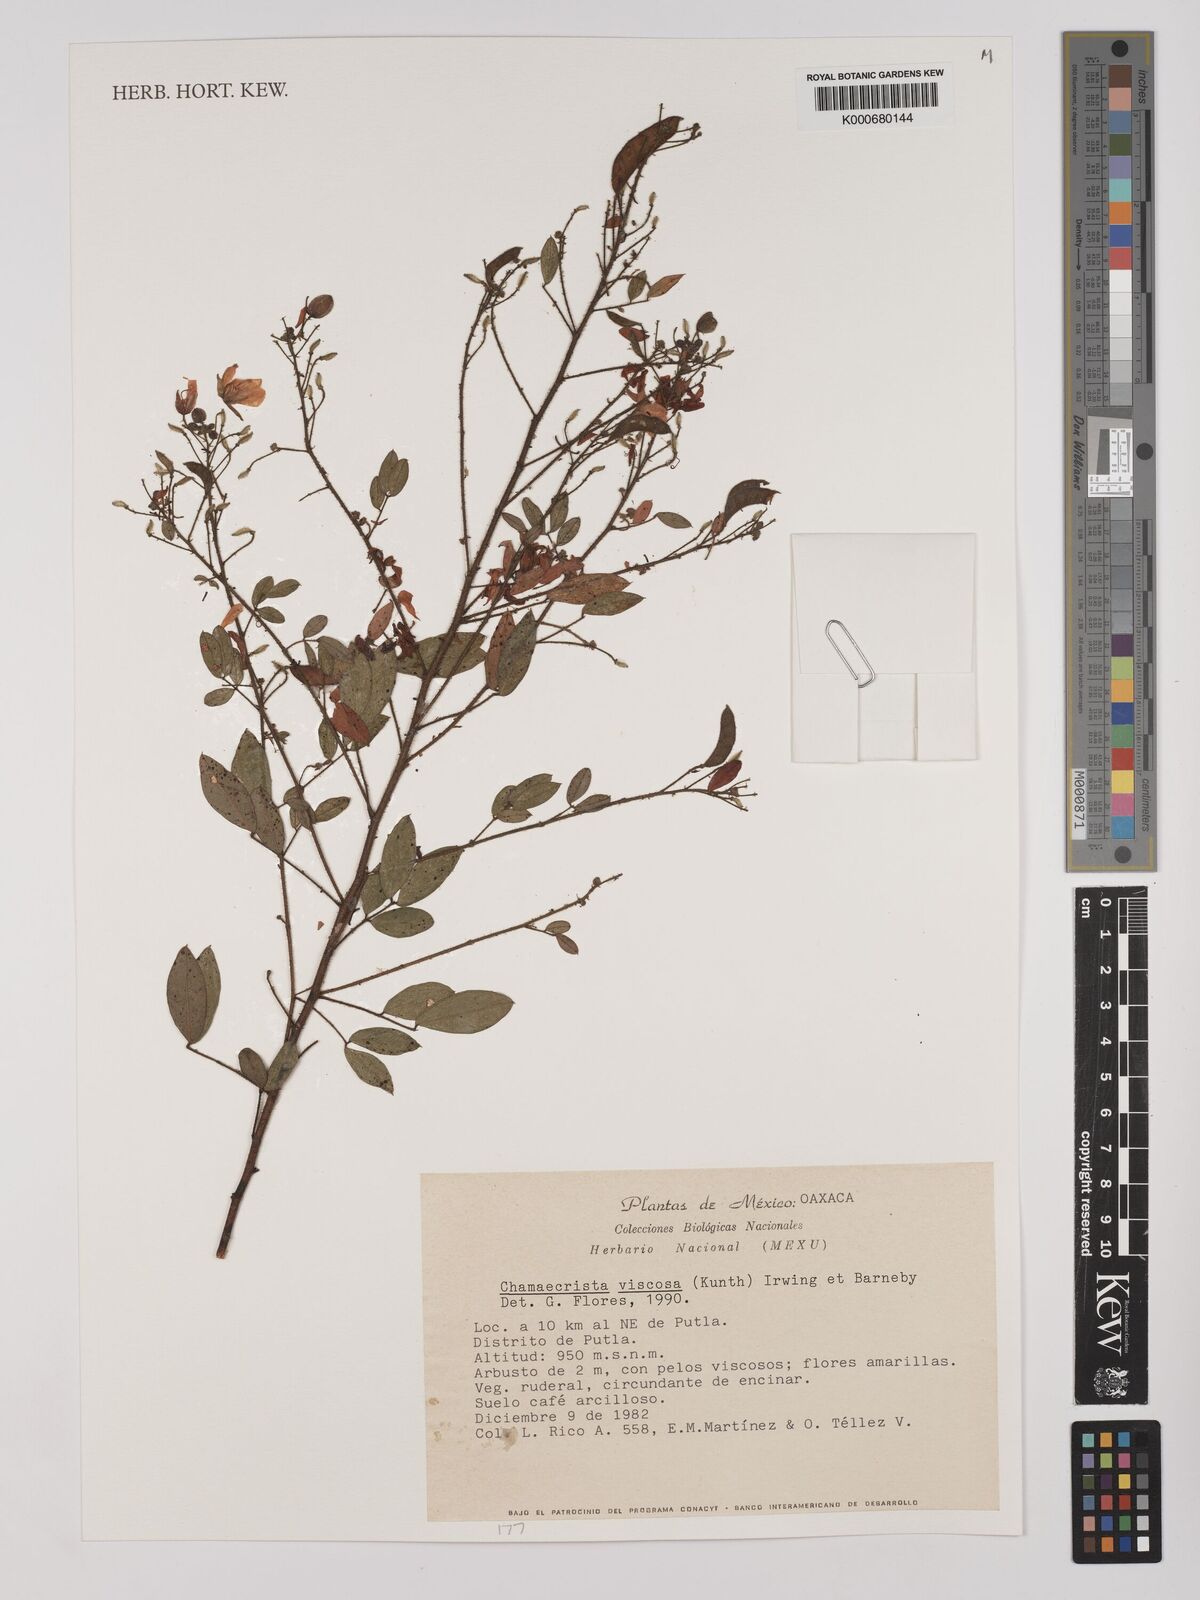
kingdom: Plantae
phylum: Tracheophyta
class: Magnoliopsida
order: Fabales
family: Fabaceae
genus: Chamaecrista
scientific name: Chamaecrista viscosa
